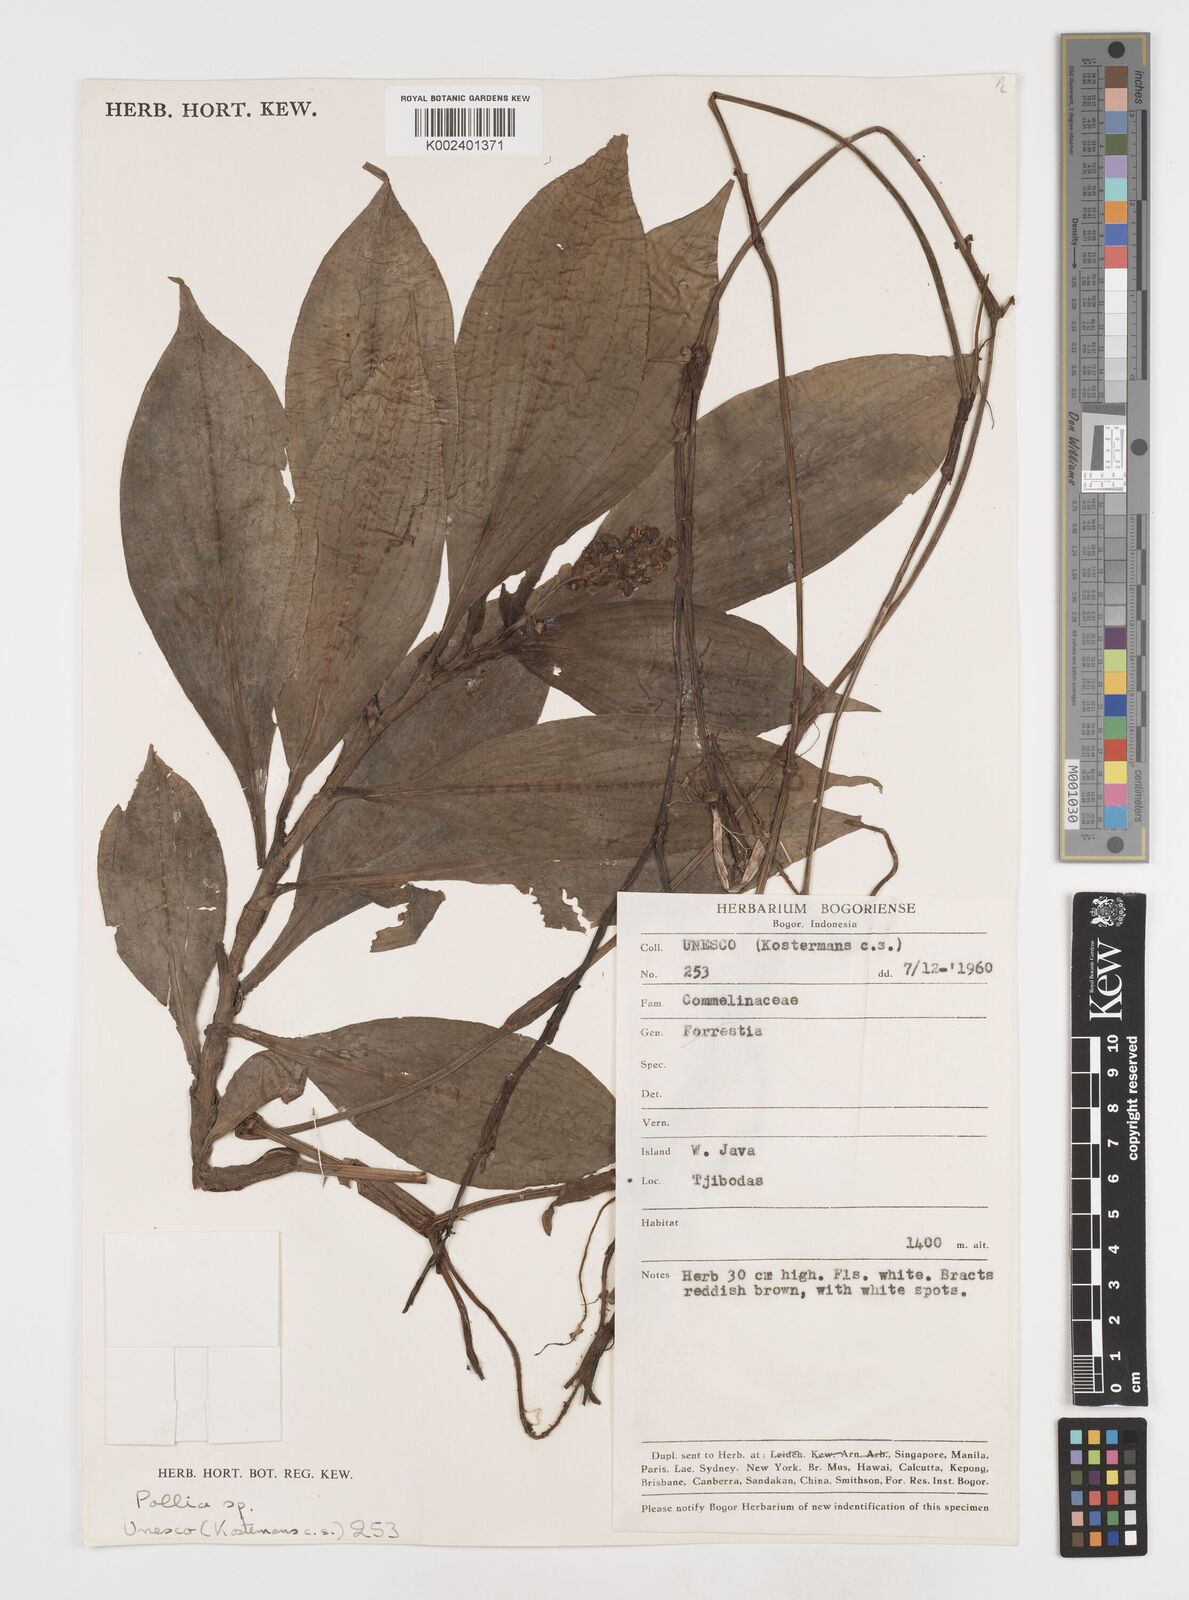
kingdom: Plantae
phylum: Tracheophyta
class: Liliopsida
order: Commelinales
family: Commelinaceae
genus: Pollia
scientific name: Pollia
